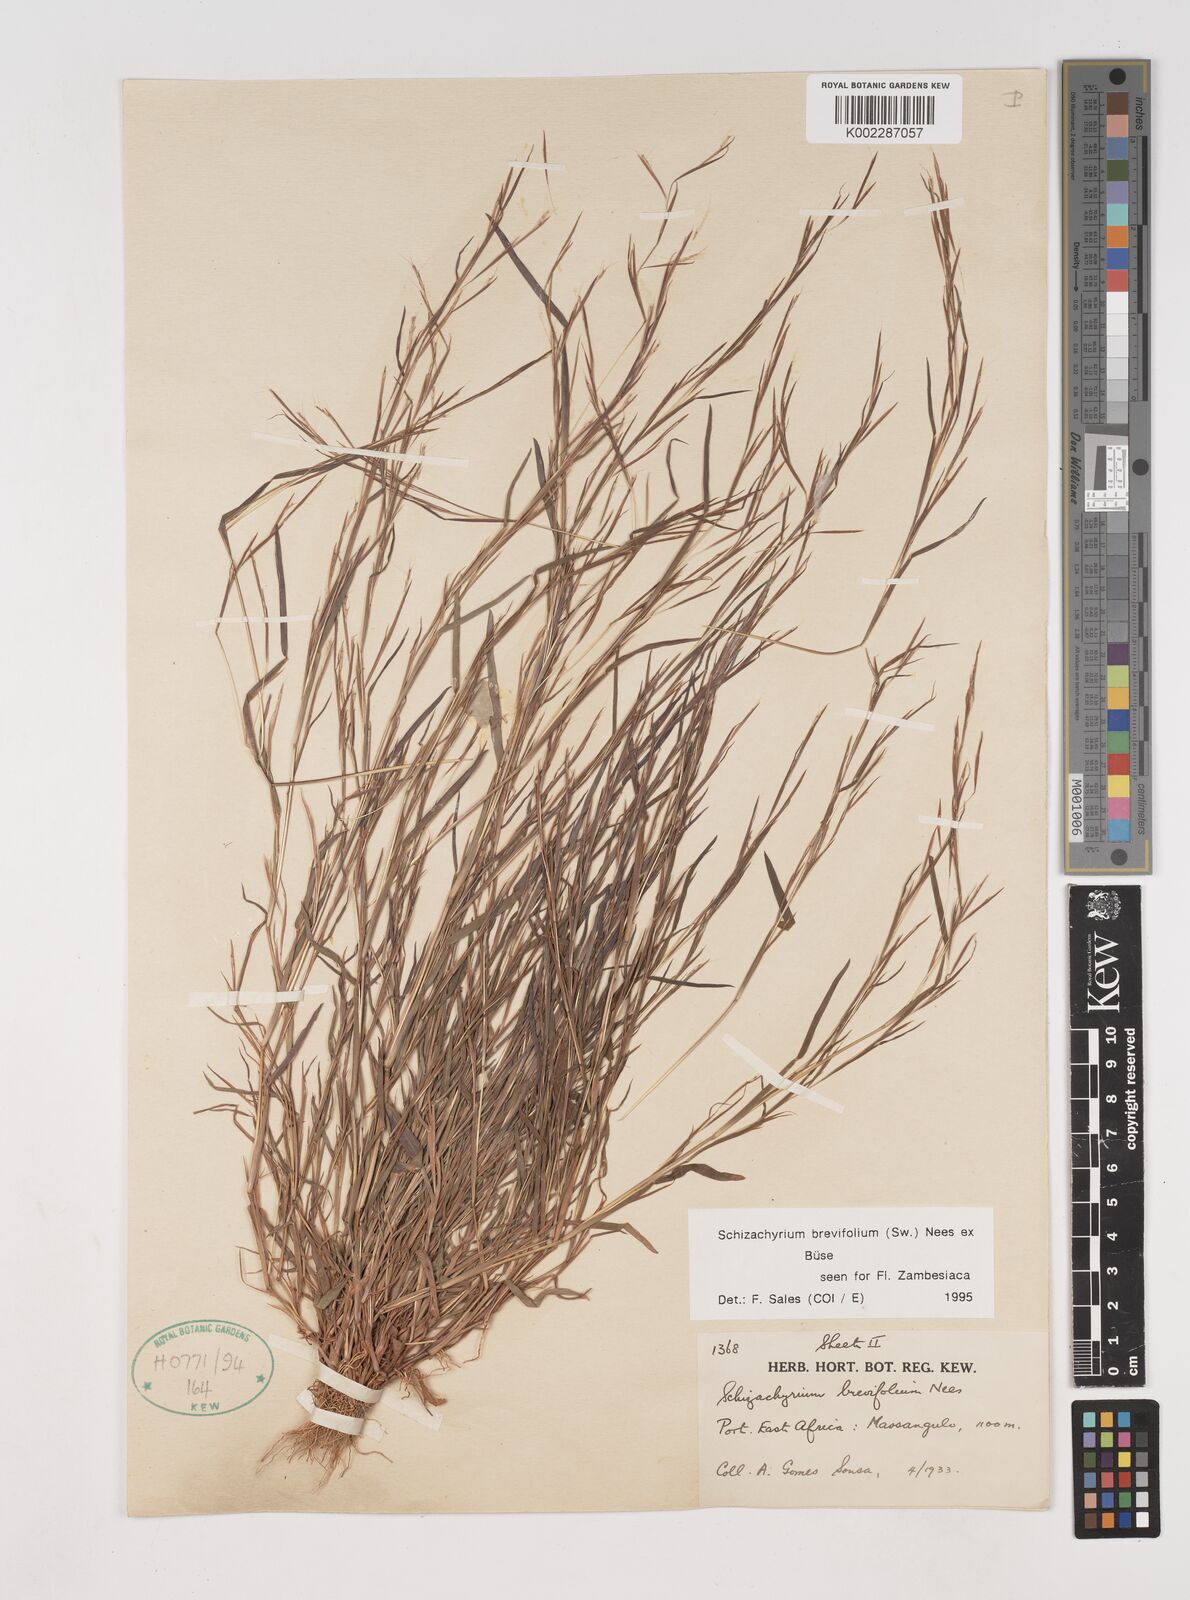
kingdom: Plantae
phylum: Tracheophyta
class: Liliopsida
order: Poales
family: Poaceae
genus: Schizachyrium
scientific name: Schizachyrium brevifolium
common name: Serillo dulce
